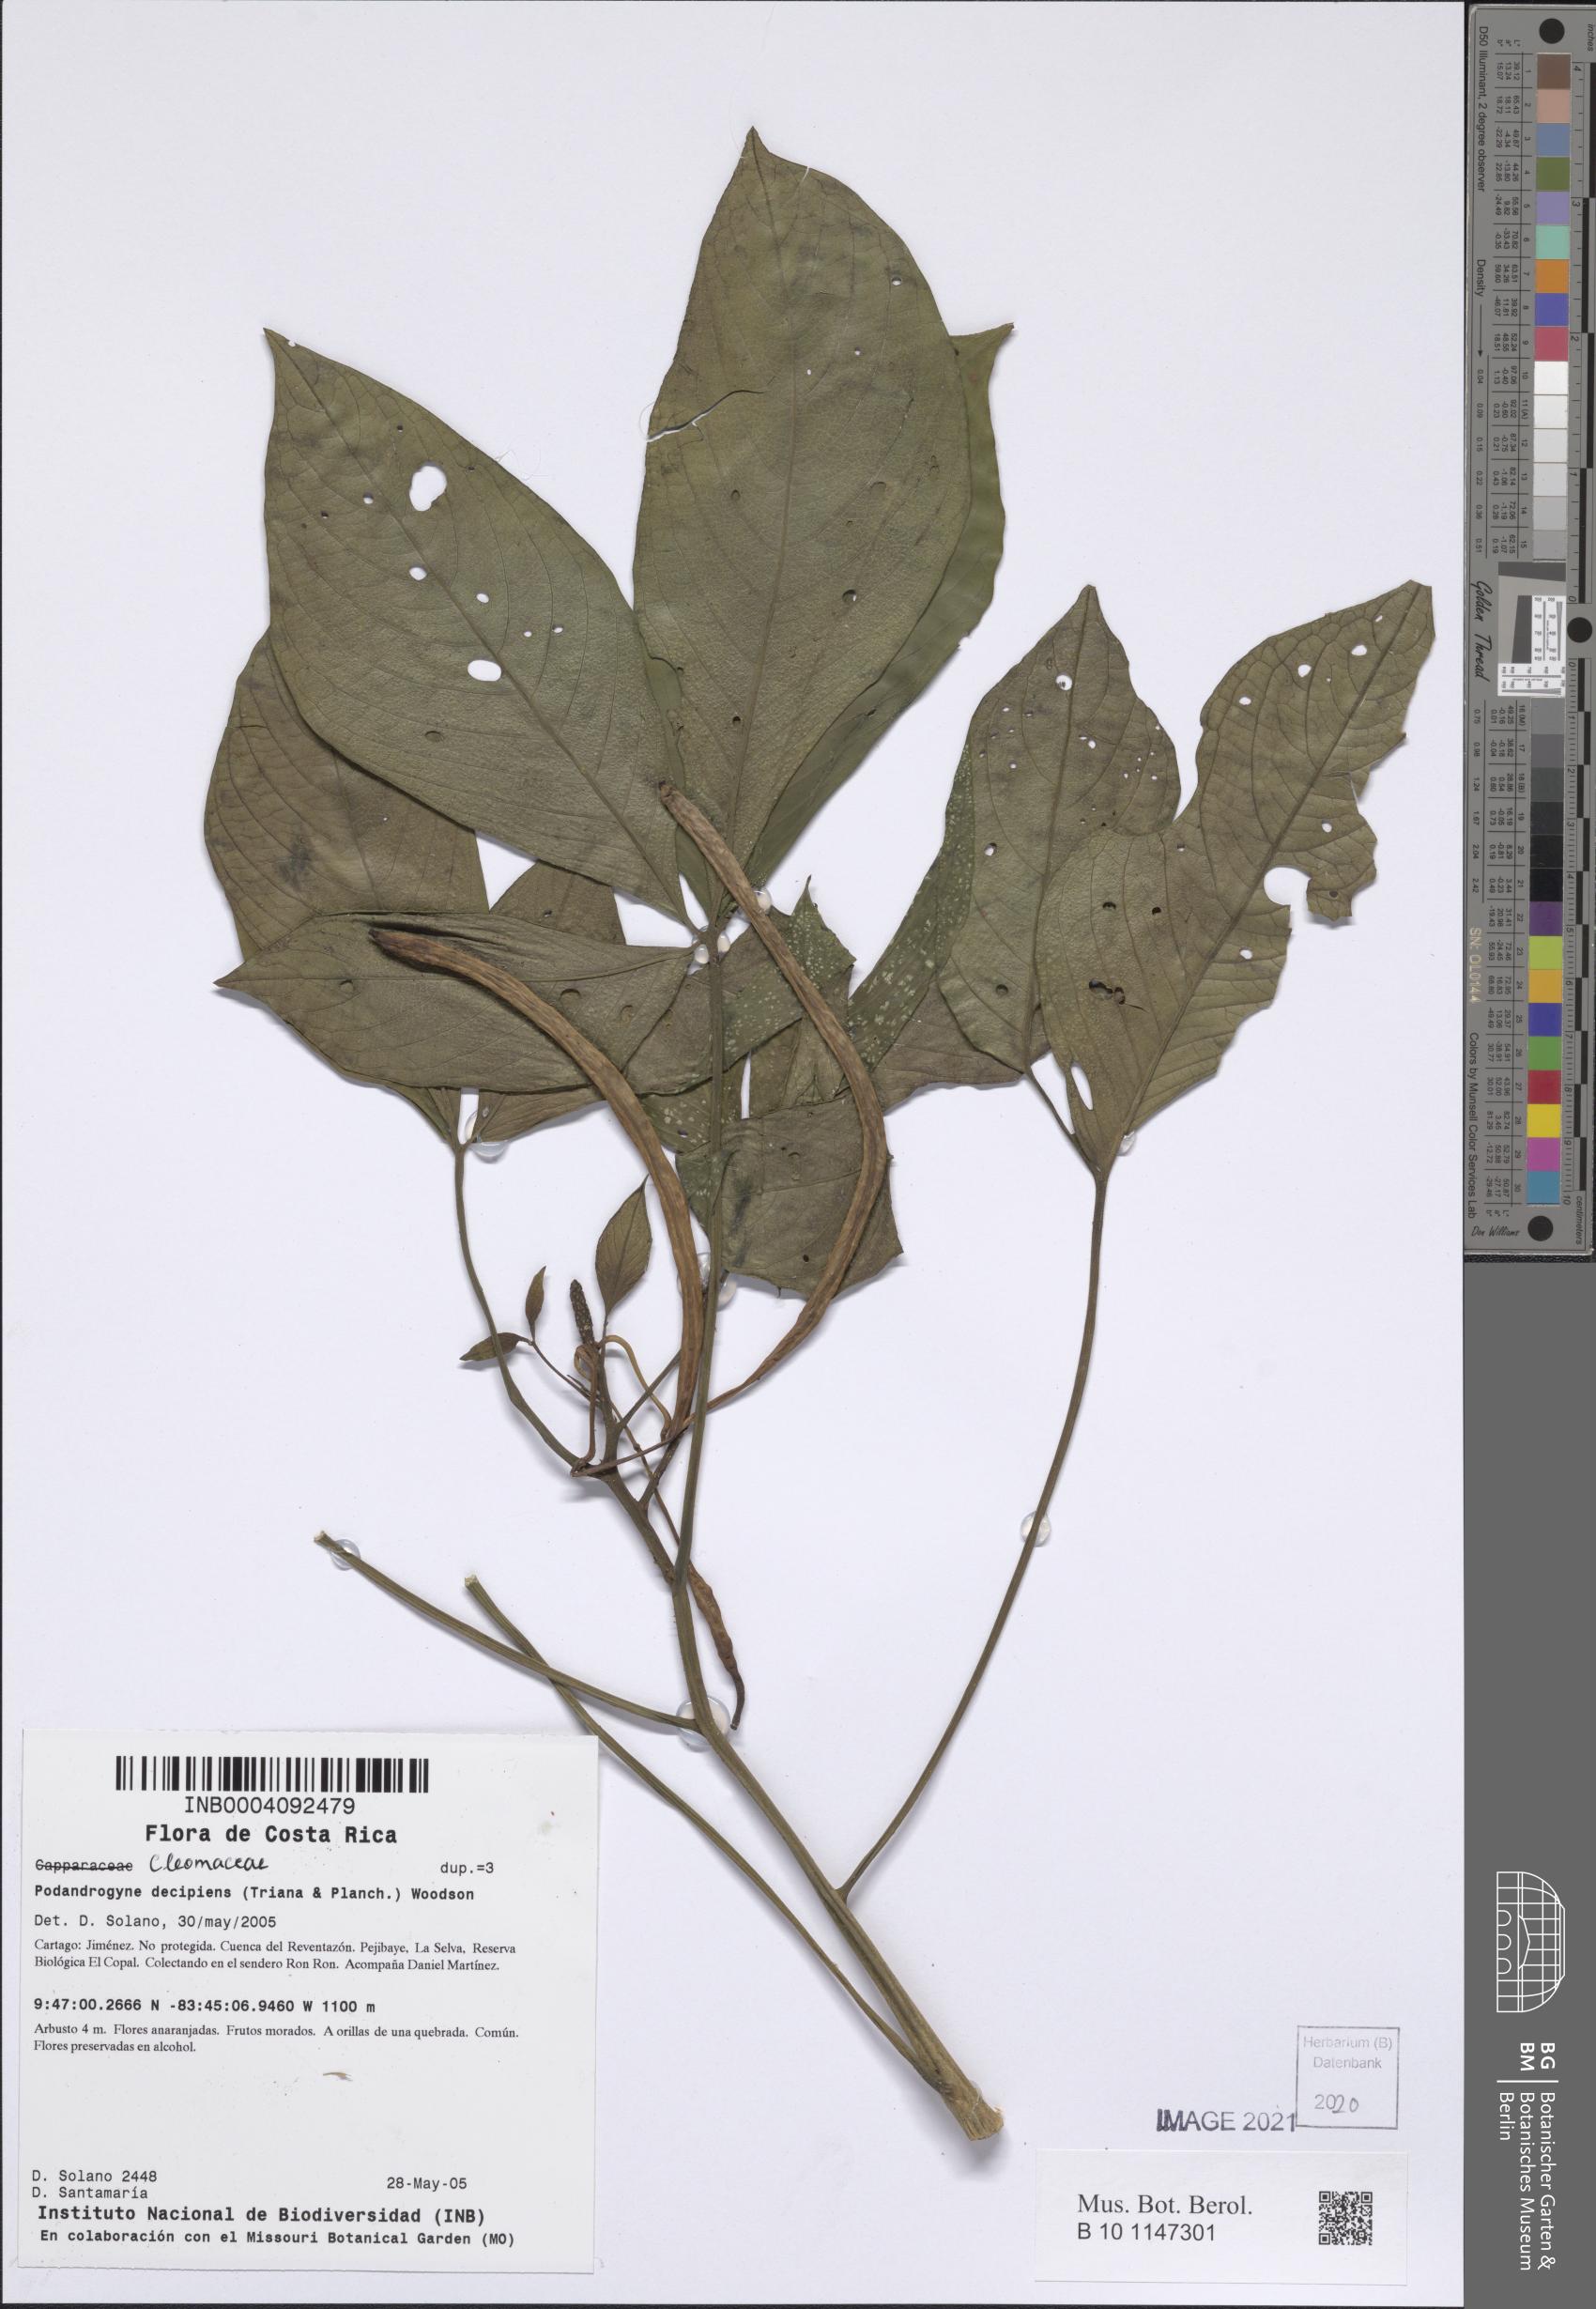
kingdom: Plantae
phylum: Tracheophyta
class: Magnoliopsida
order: Brassicales
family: Cleomaceae
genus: Podandrogyne
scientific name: Podandrogyne decipiens
